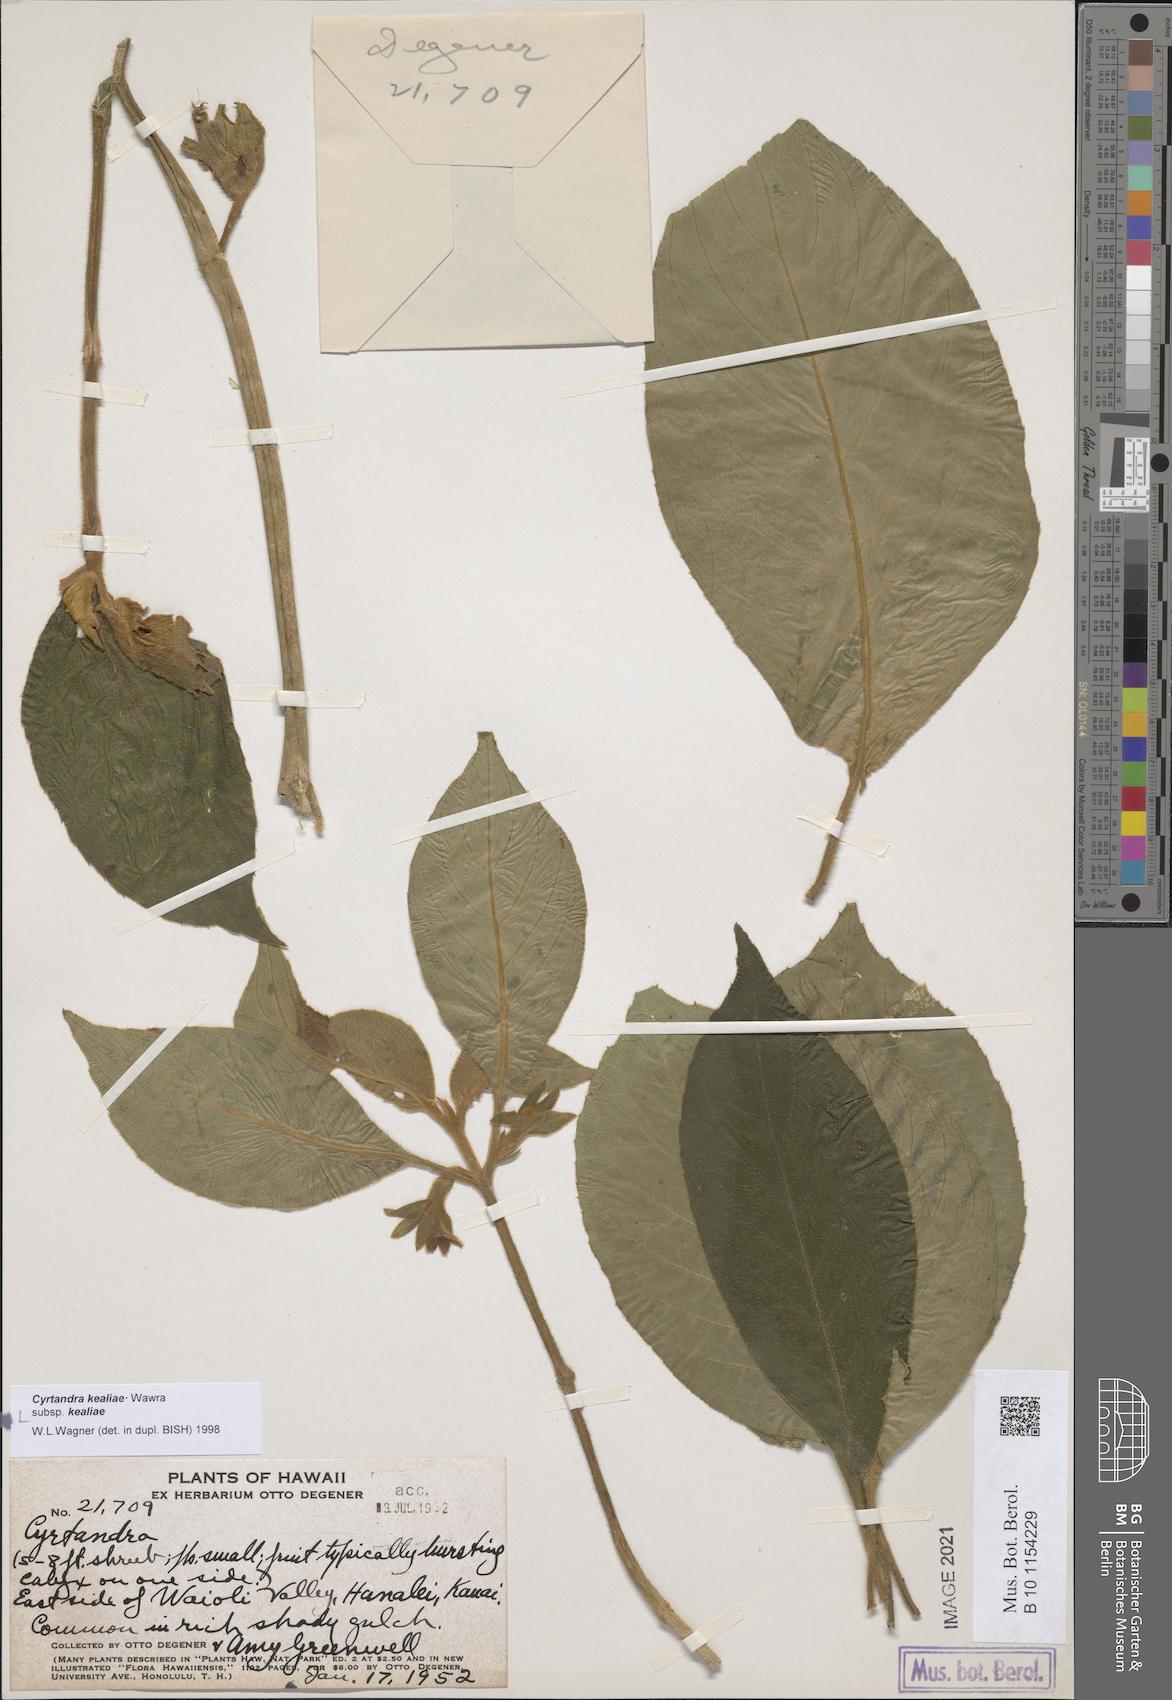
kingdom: Plantae
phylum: Tracheophyta
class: Magnoliopsida
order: Lamiales
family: Gesneriaceae
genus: Cyrtandra
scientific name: Cyrtandra kealiae
